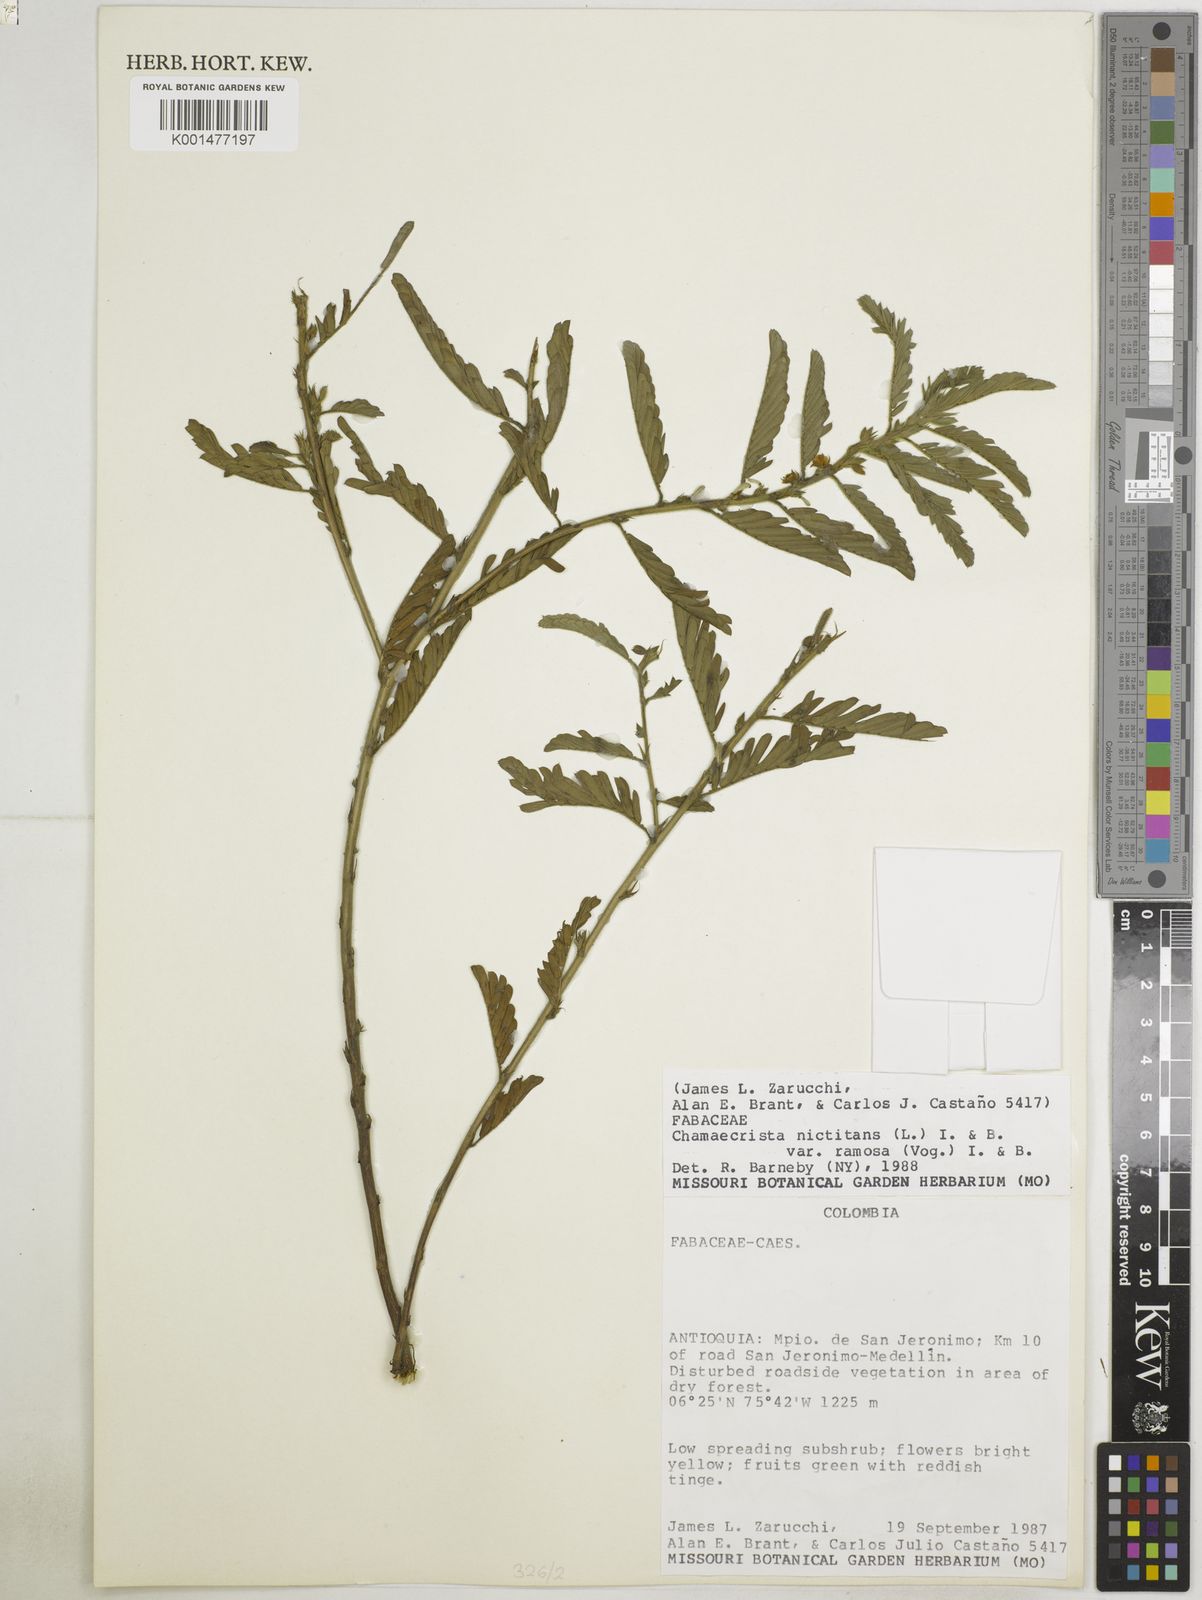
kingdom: Plantae
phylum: Tracheophyta
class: Magnoliopsida
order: Fabales
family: Fabaceae
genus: Chamaecrista
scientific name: Chamaecrista nictitans
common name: Sensitive cassia
